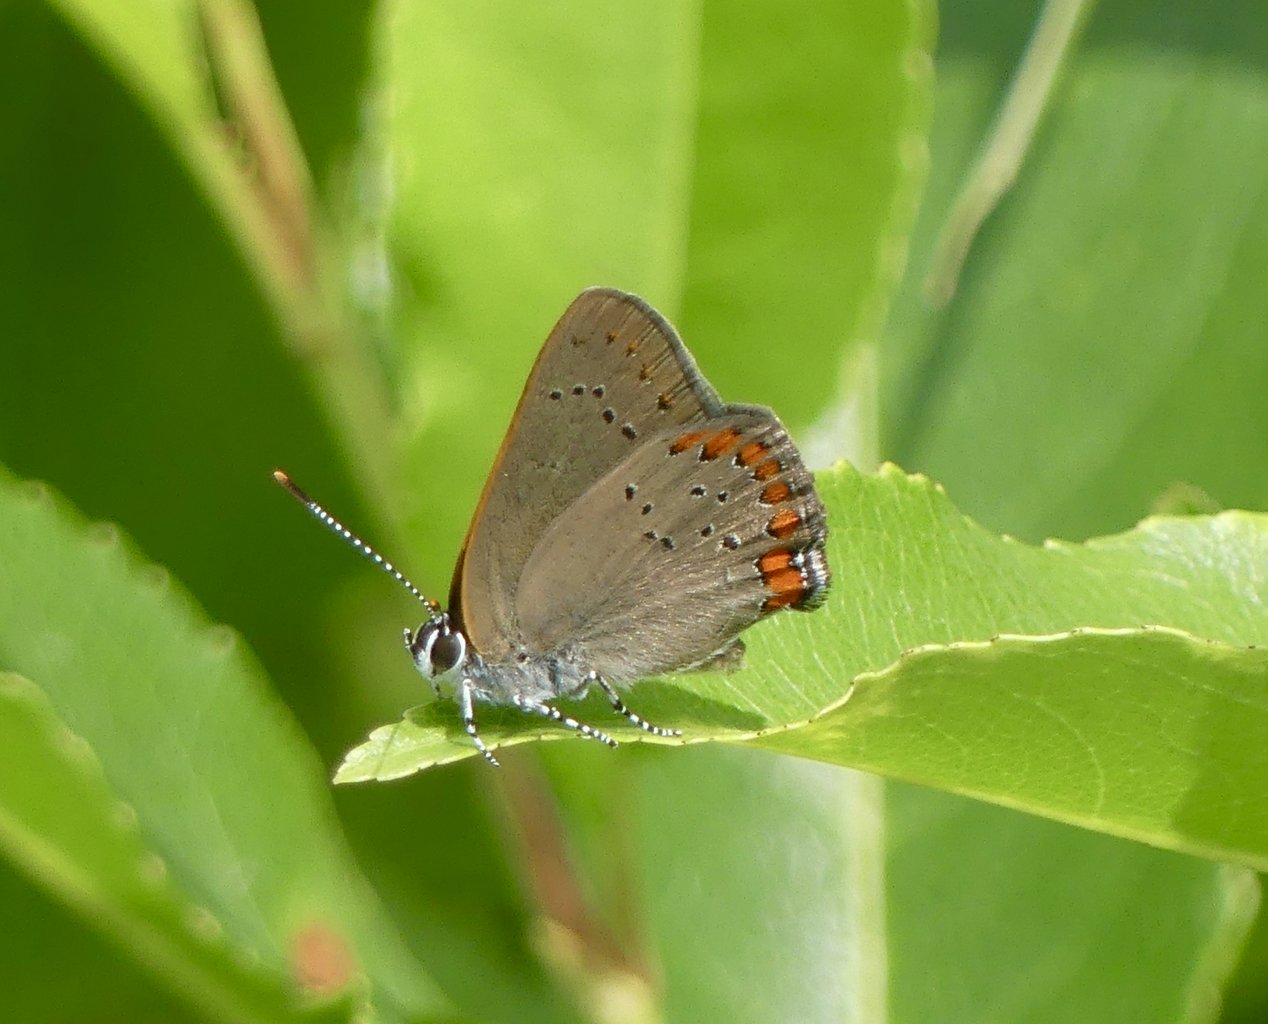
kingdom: Animalia
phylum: Arthropoda
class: Insecta
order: Lepidoptera
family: Lycaenidae
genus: Harkenclenus
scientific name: Harkenclenus titus
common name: Coral Hairstreak
